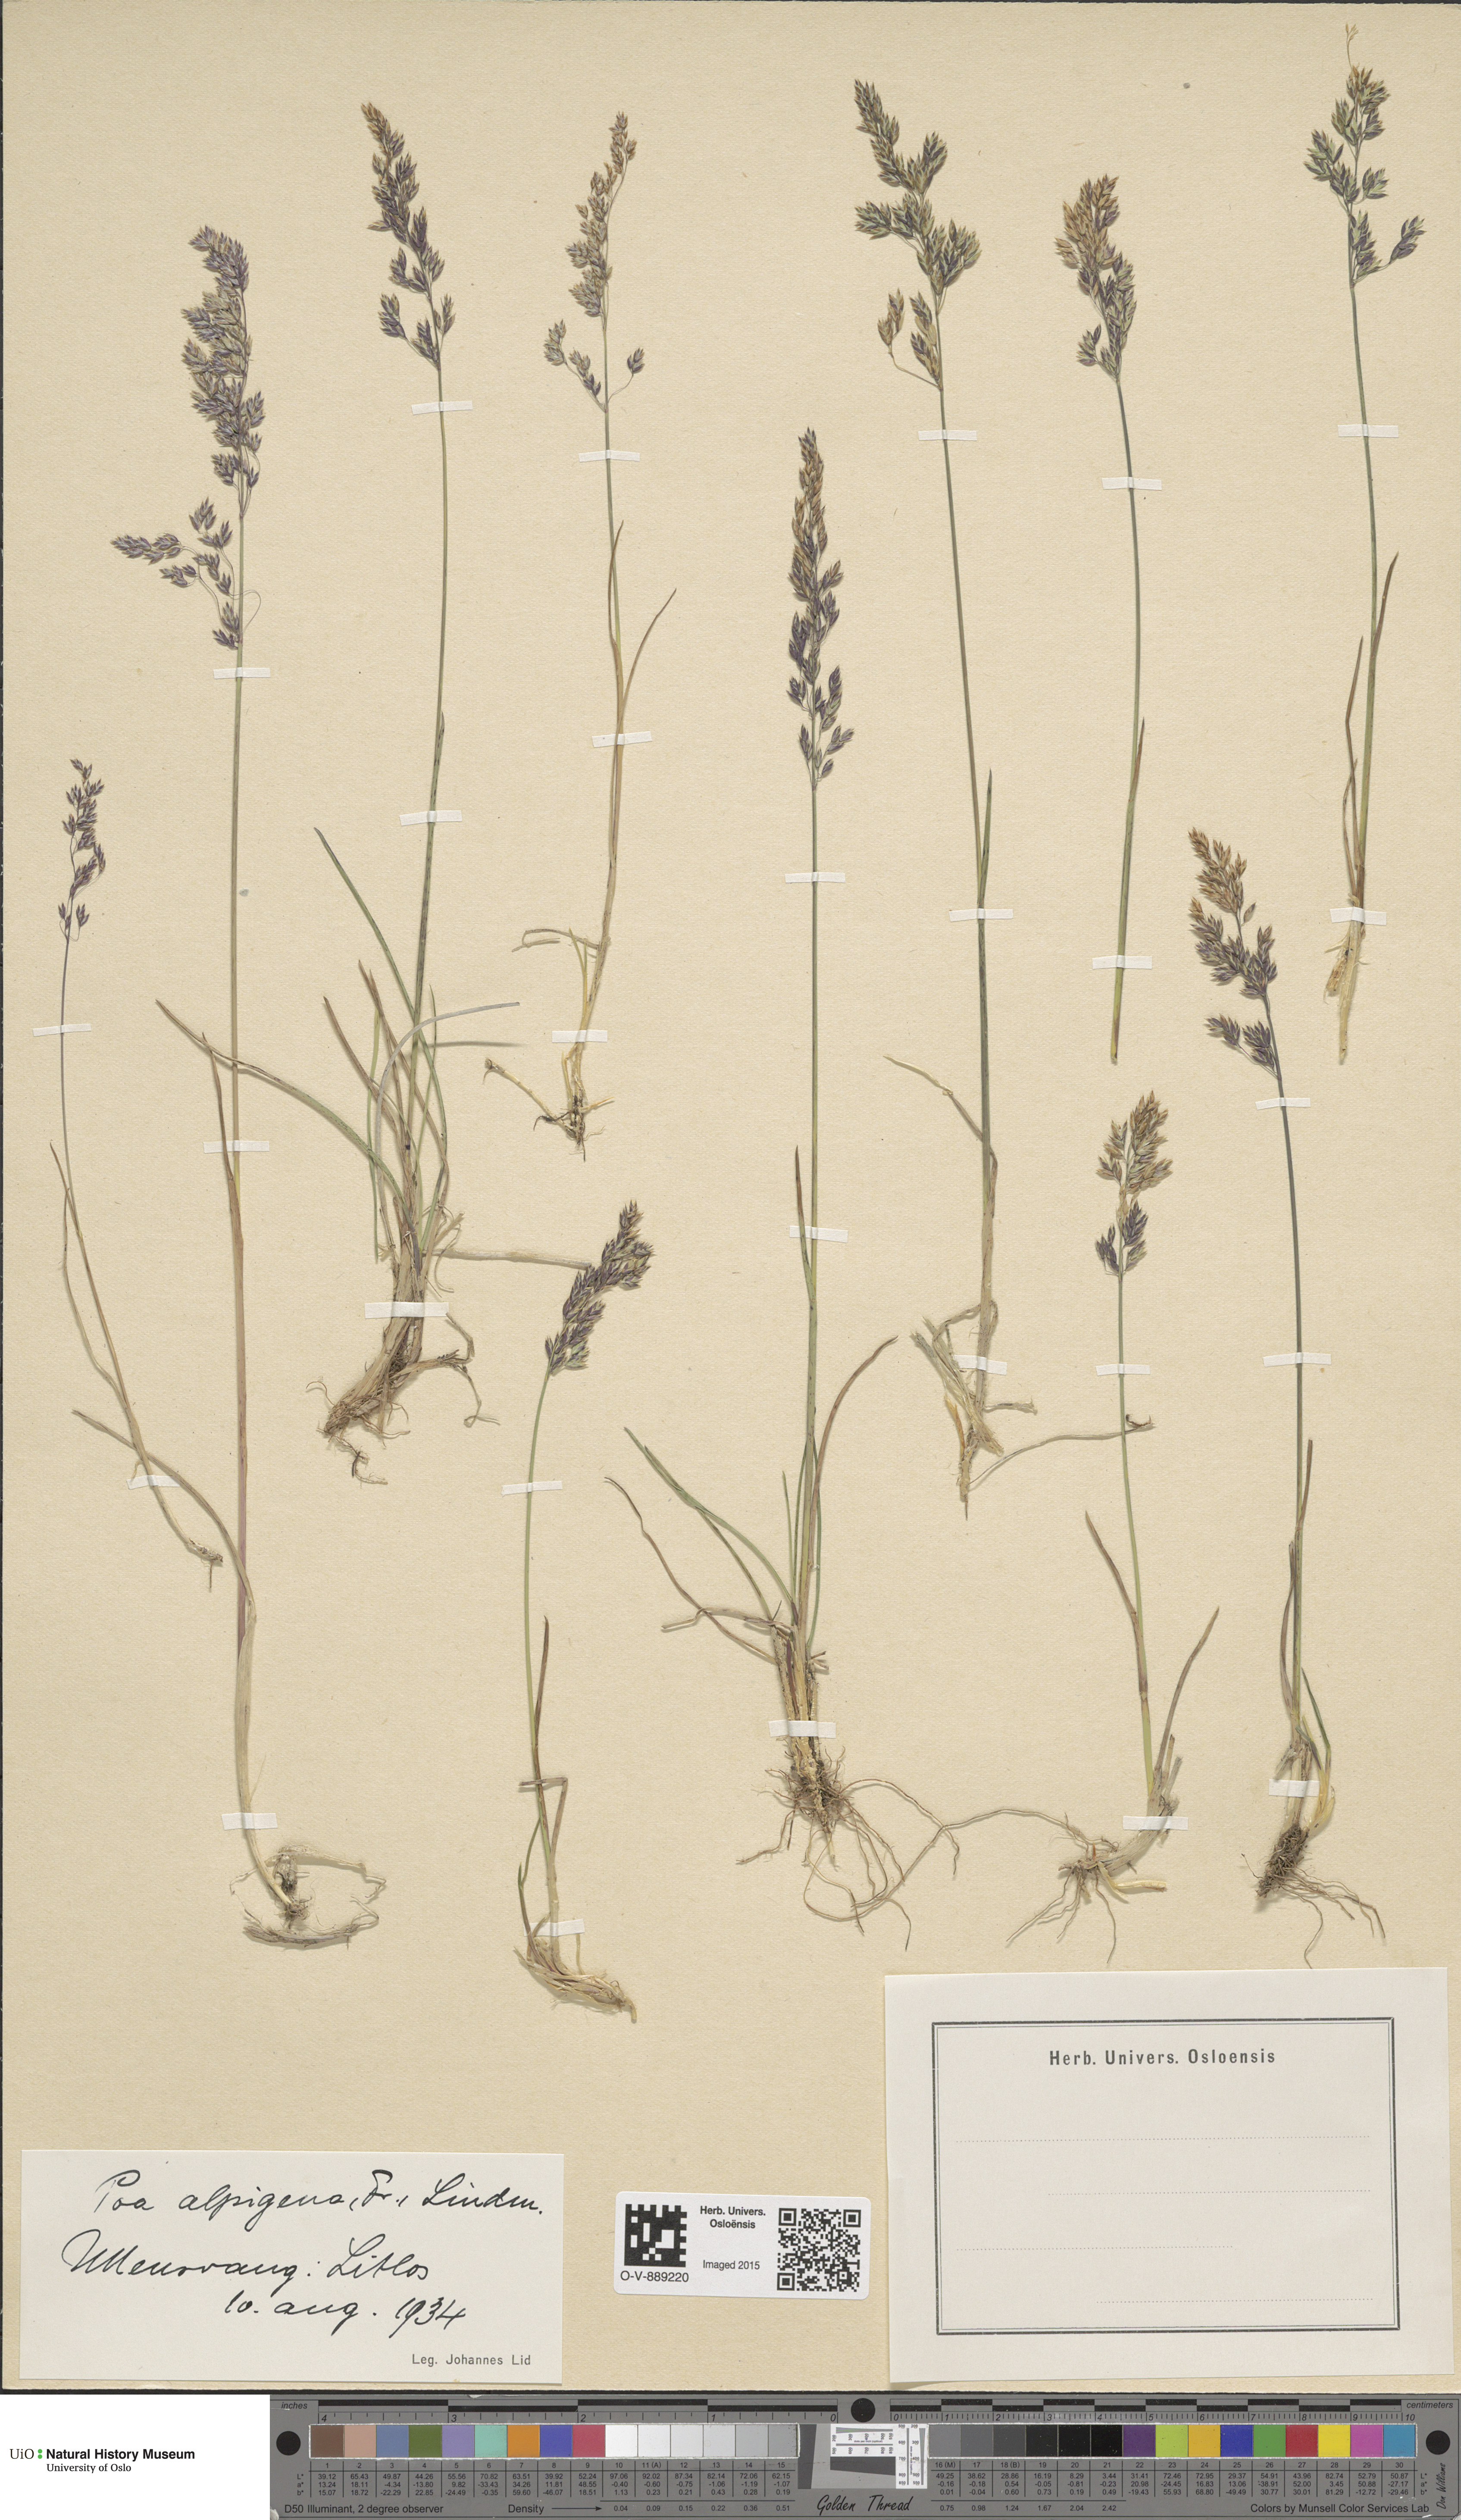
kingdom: Plantae
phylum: Tracheophyta
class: Liliopsida
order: Poales
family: Poaceae
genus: Poa
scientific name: Poa alpigena
